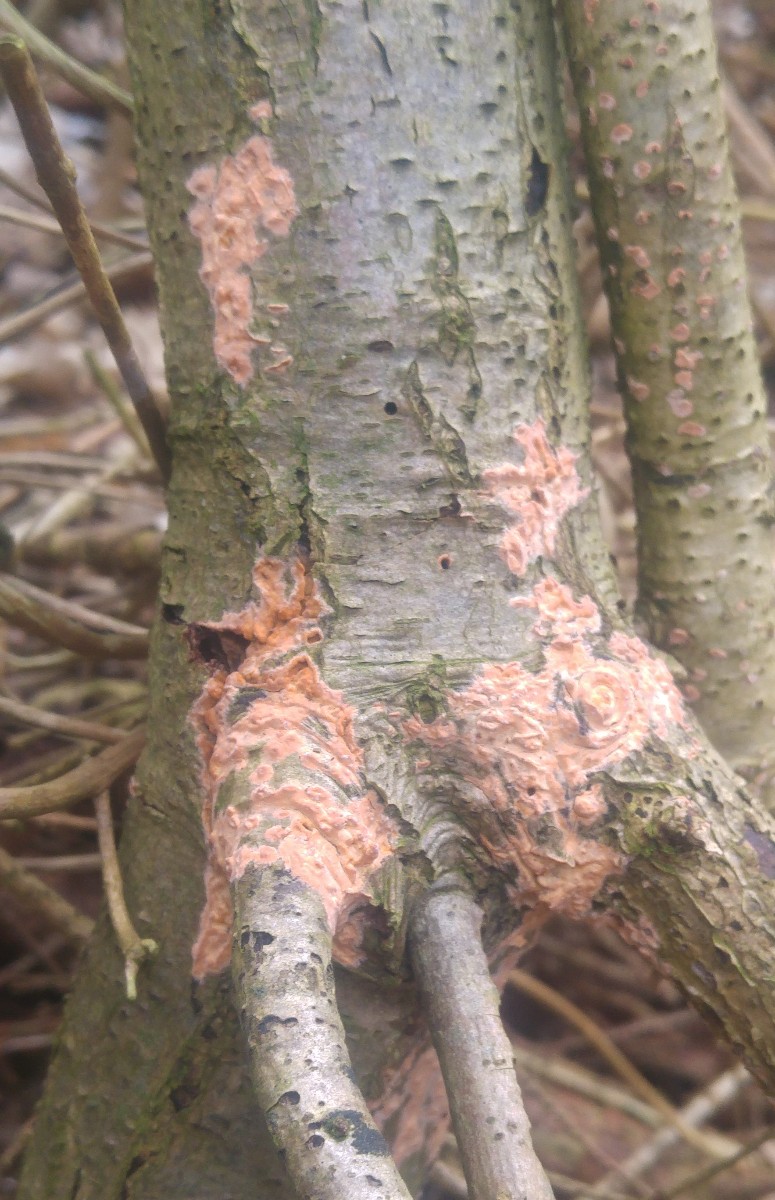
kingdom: Fungi
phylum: Basidiomycota
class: Agaricomycetes
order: Russulales
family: Peniophoraceae
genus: Peniophora
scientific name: Peniophora incarnata
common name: laksefarvet voksskind
